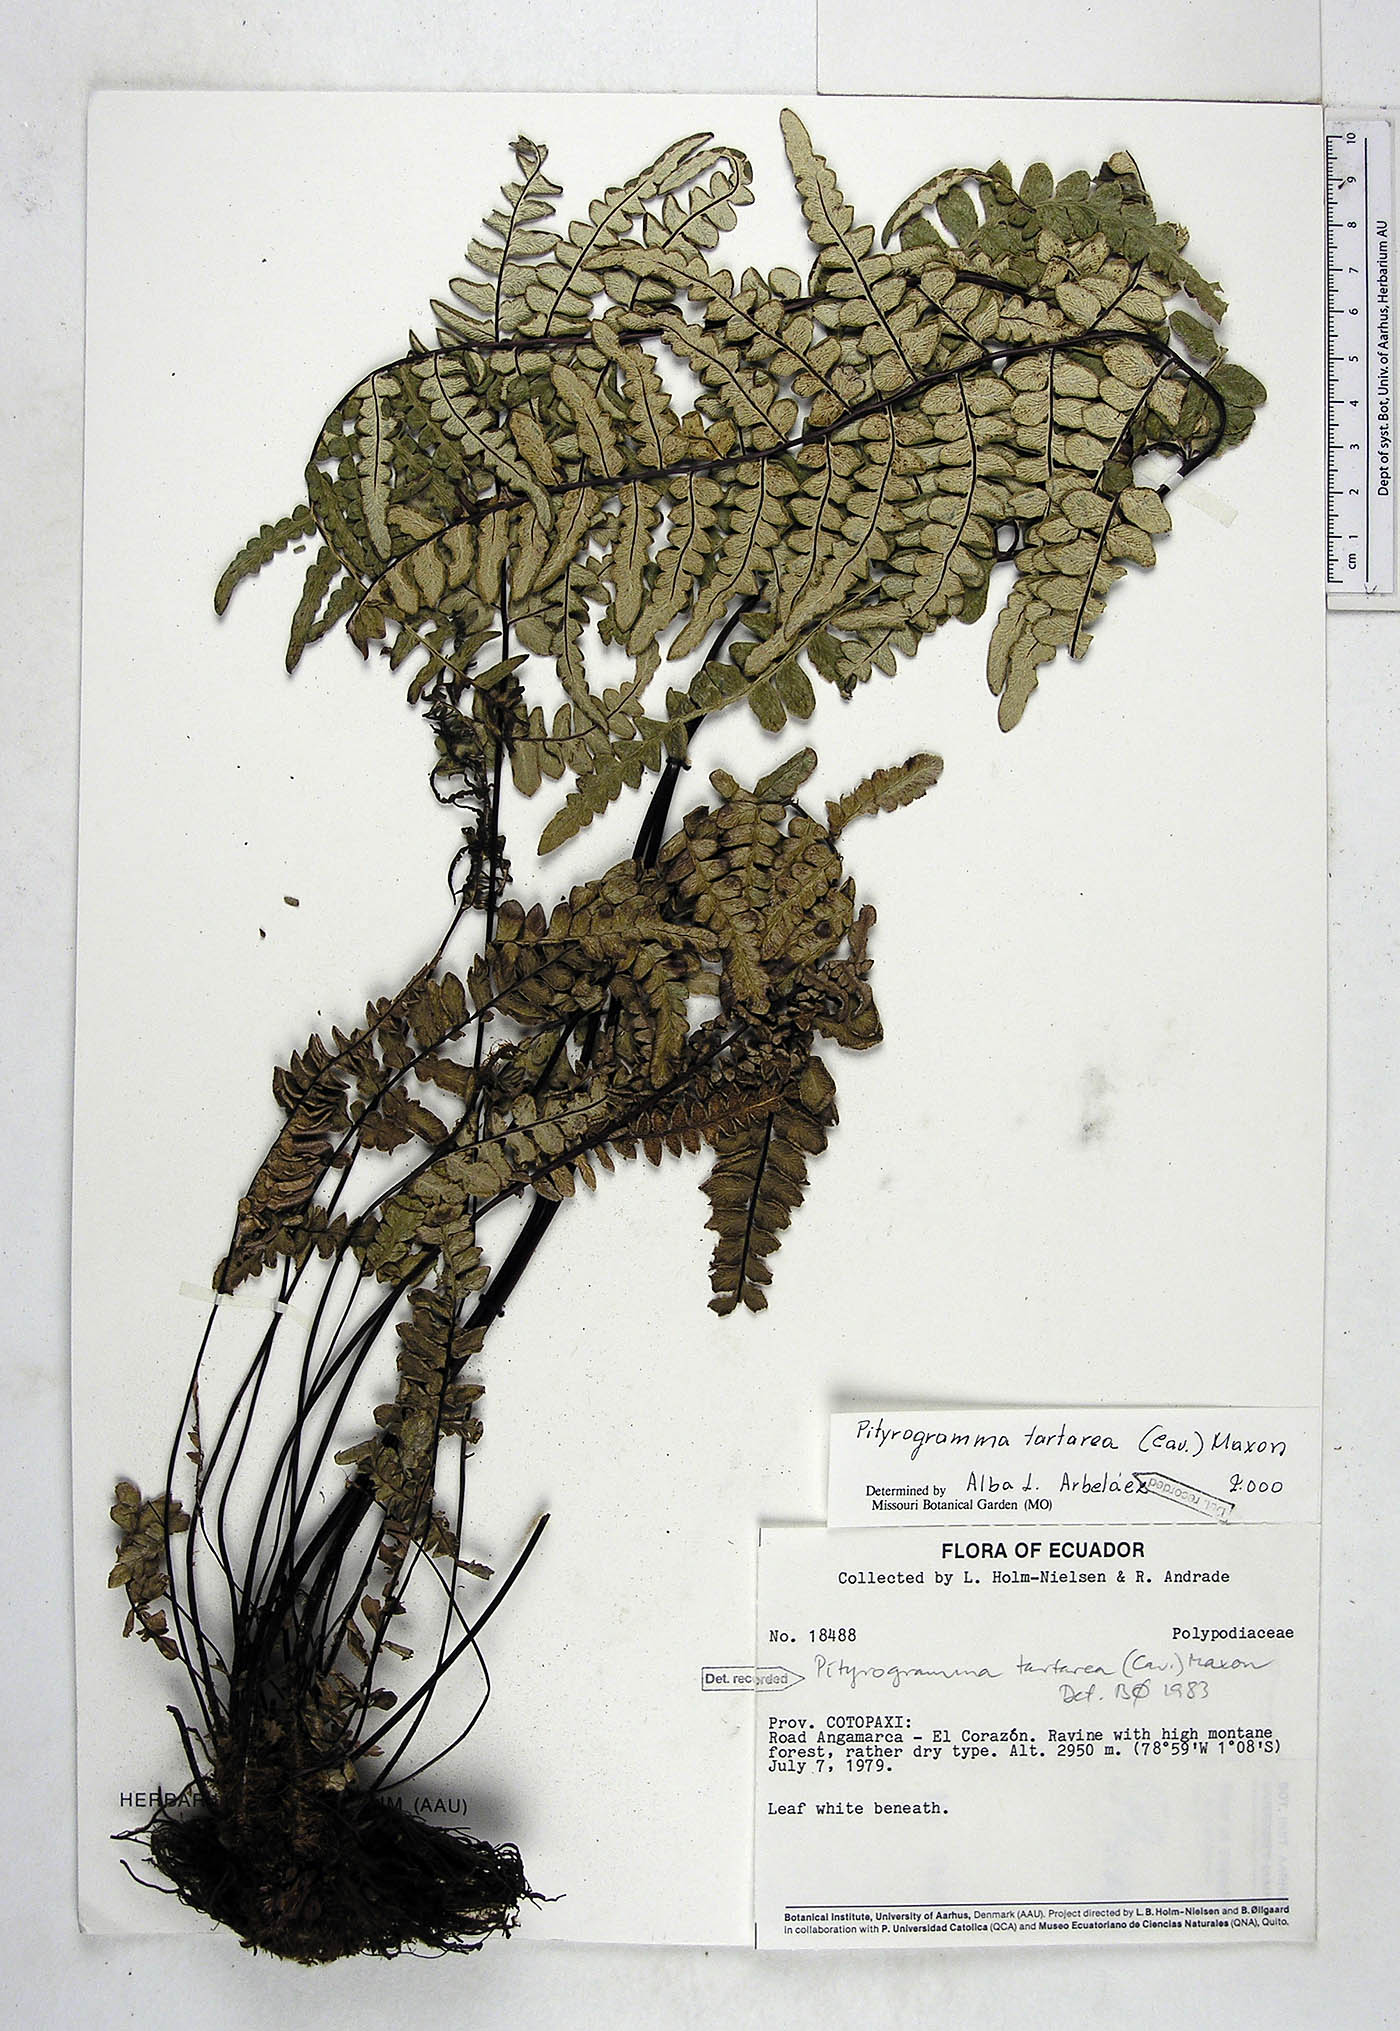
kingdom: Plantae
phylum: Tracheophyta
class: Polypodiopsida
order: Polypodiales
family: Pteridaceae
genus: Pityrogramma
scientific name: Pityrogramma ebenea
